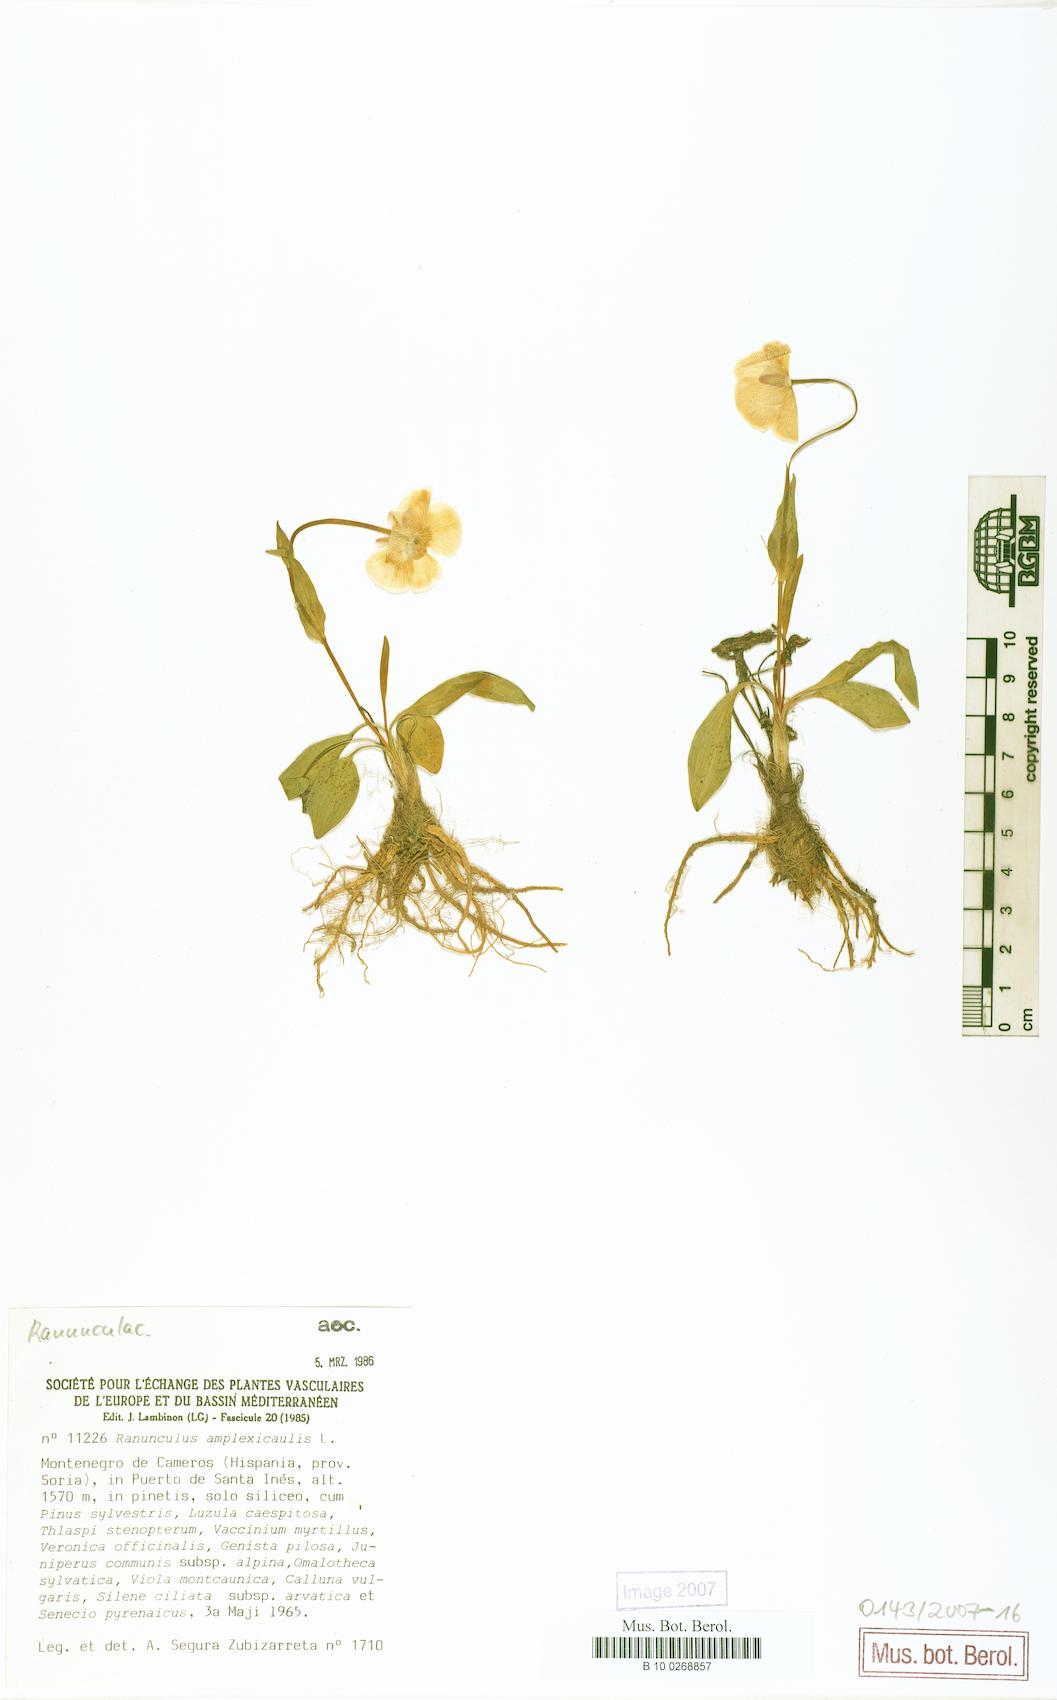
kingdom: Plantae
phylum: Tracheophyta
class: Magnoliopsida
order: Ranunculales
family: Ranunculaceae
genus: Ranunculus
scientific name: Ranunculus amplexicaulis
